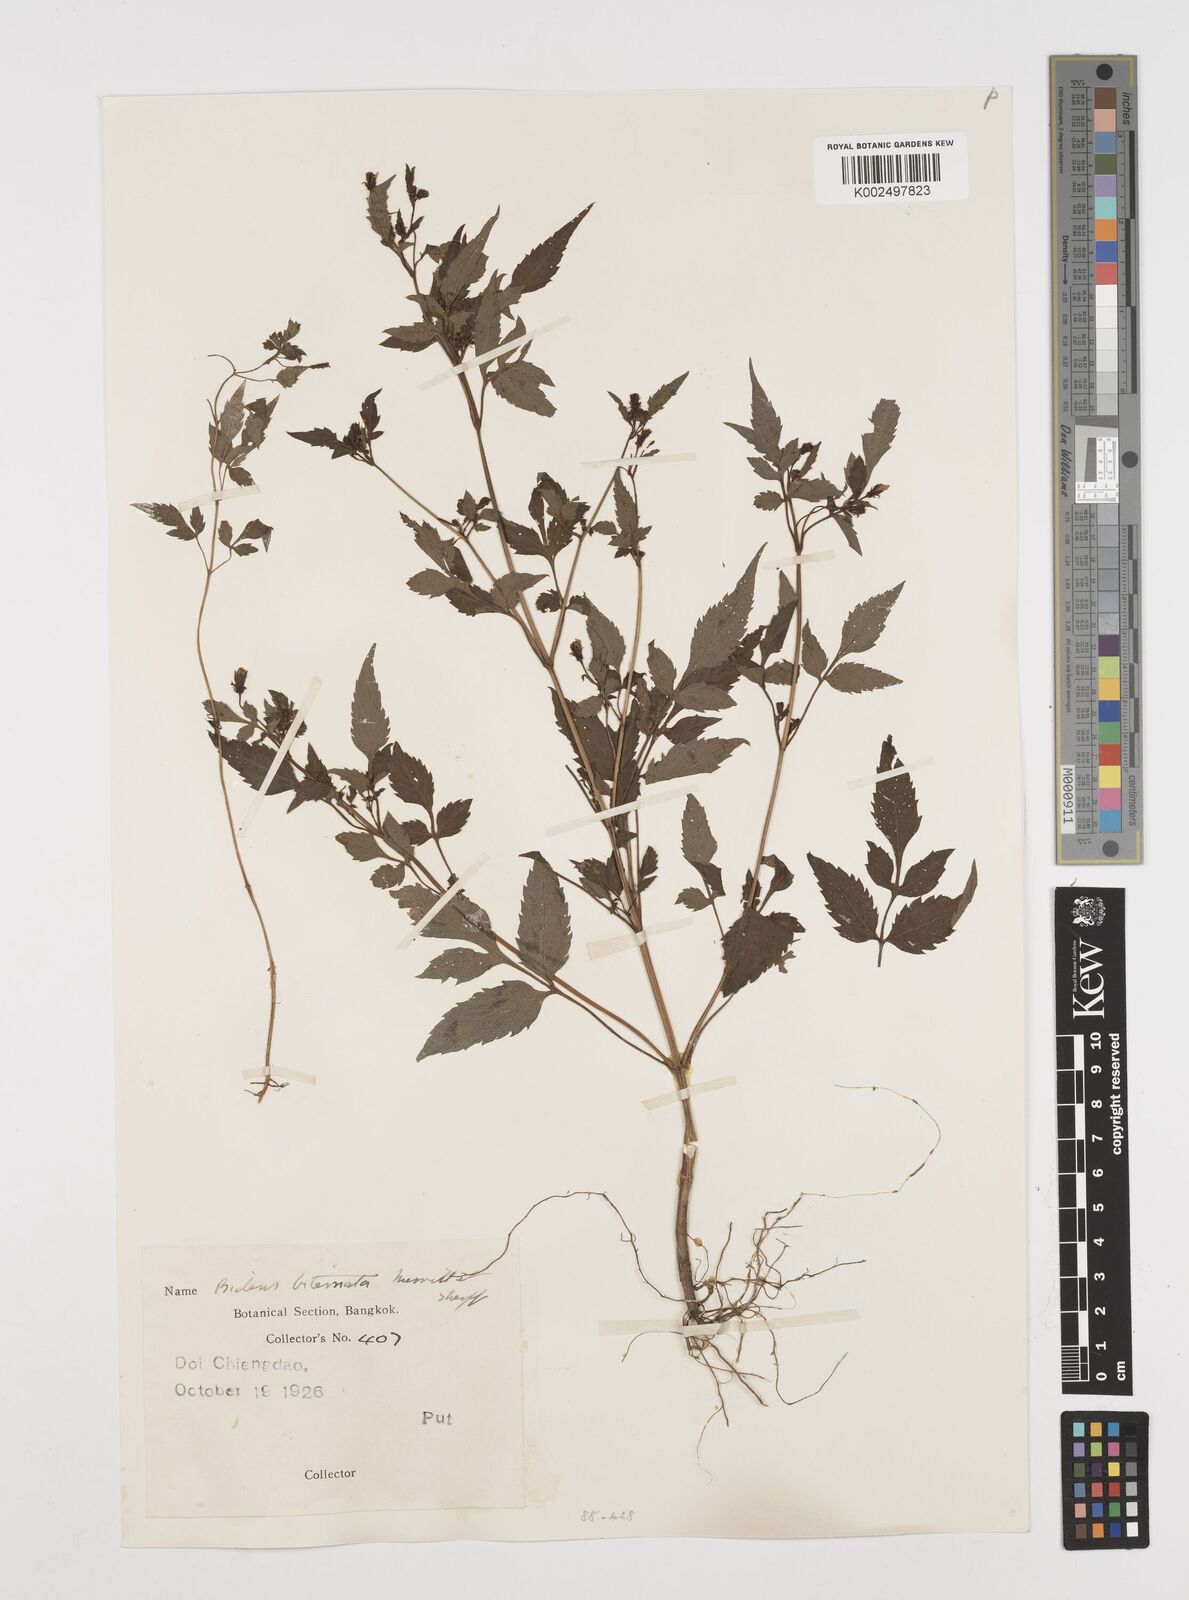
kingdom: Plantae
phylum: Tracheophyta
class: Magnoliopsida
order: Asterales
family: Asteraceae
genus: Bidens
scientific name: Bidens biternata
